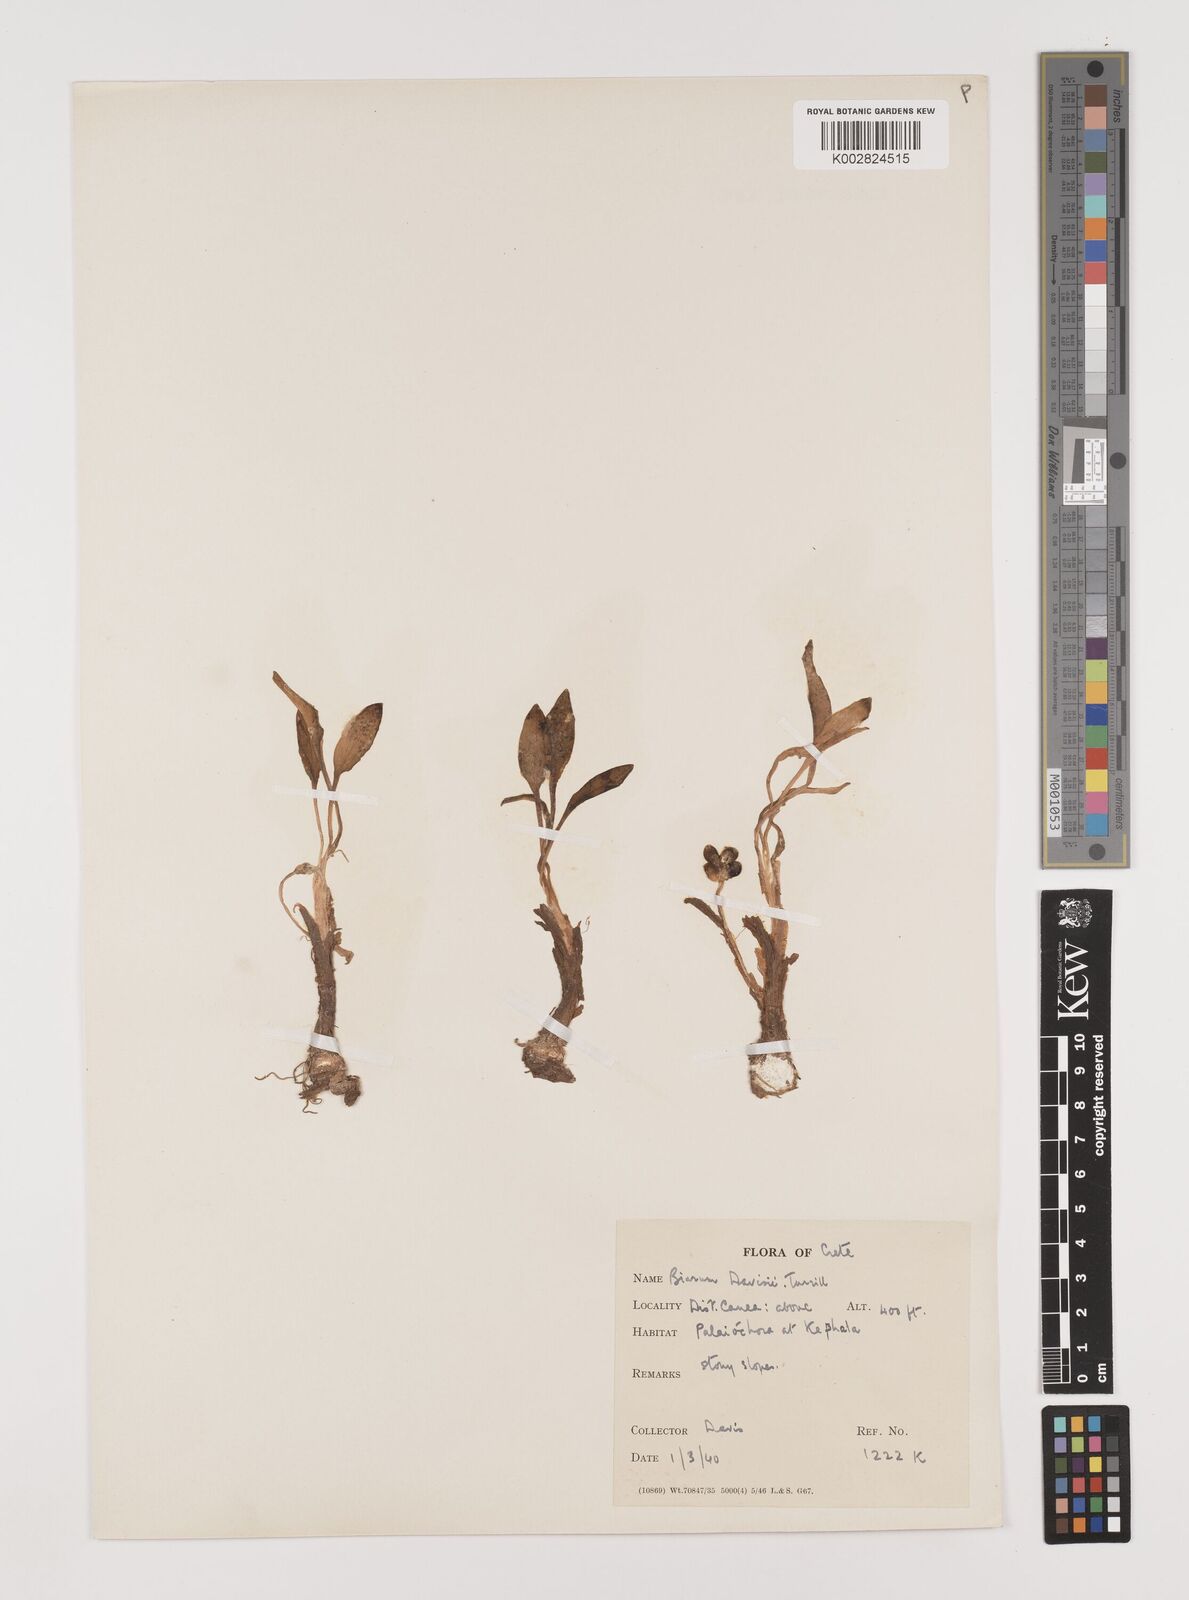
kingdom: Plantae
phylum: Tracheophyta
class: Liliopsida
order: Alismatales
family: Araceae
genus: Biarum
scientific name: Biarum davisii
